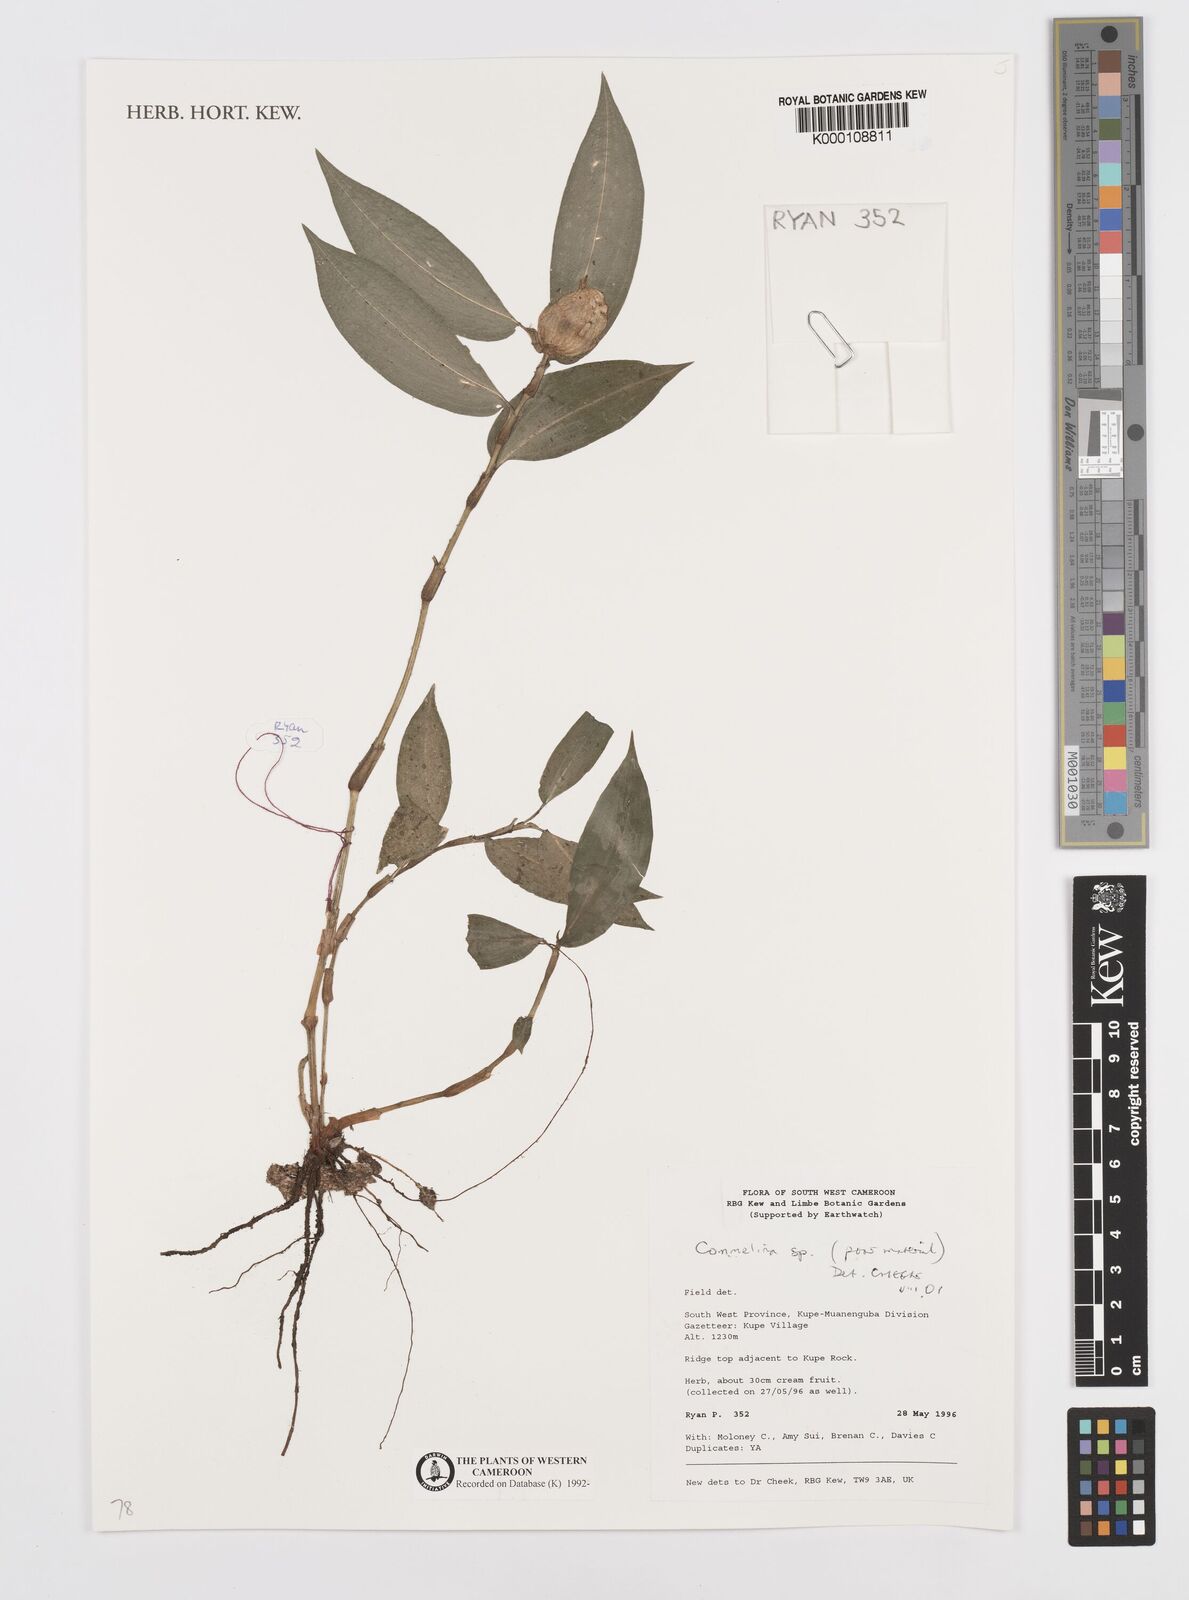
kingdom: Plantae
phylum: Tracheophyta
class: Liliopsida
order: Commelinales
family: Commelinaceae
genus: Commelina
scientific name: Commelina
